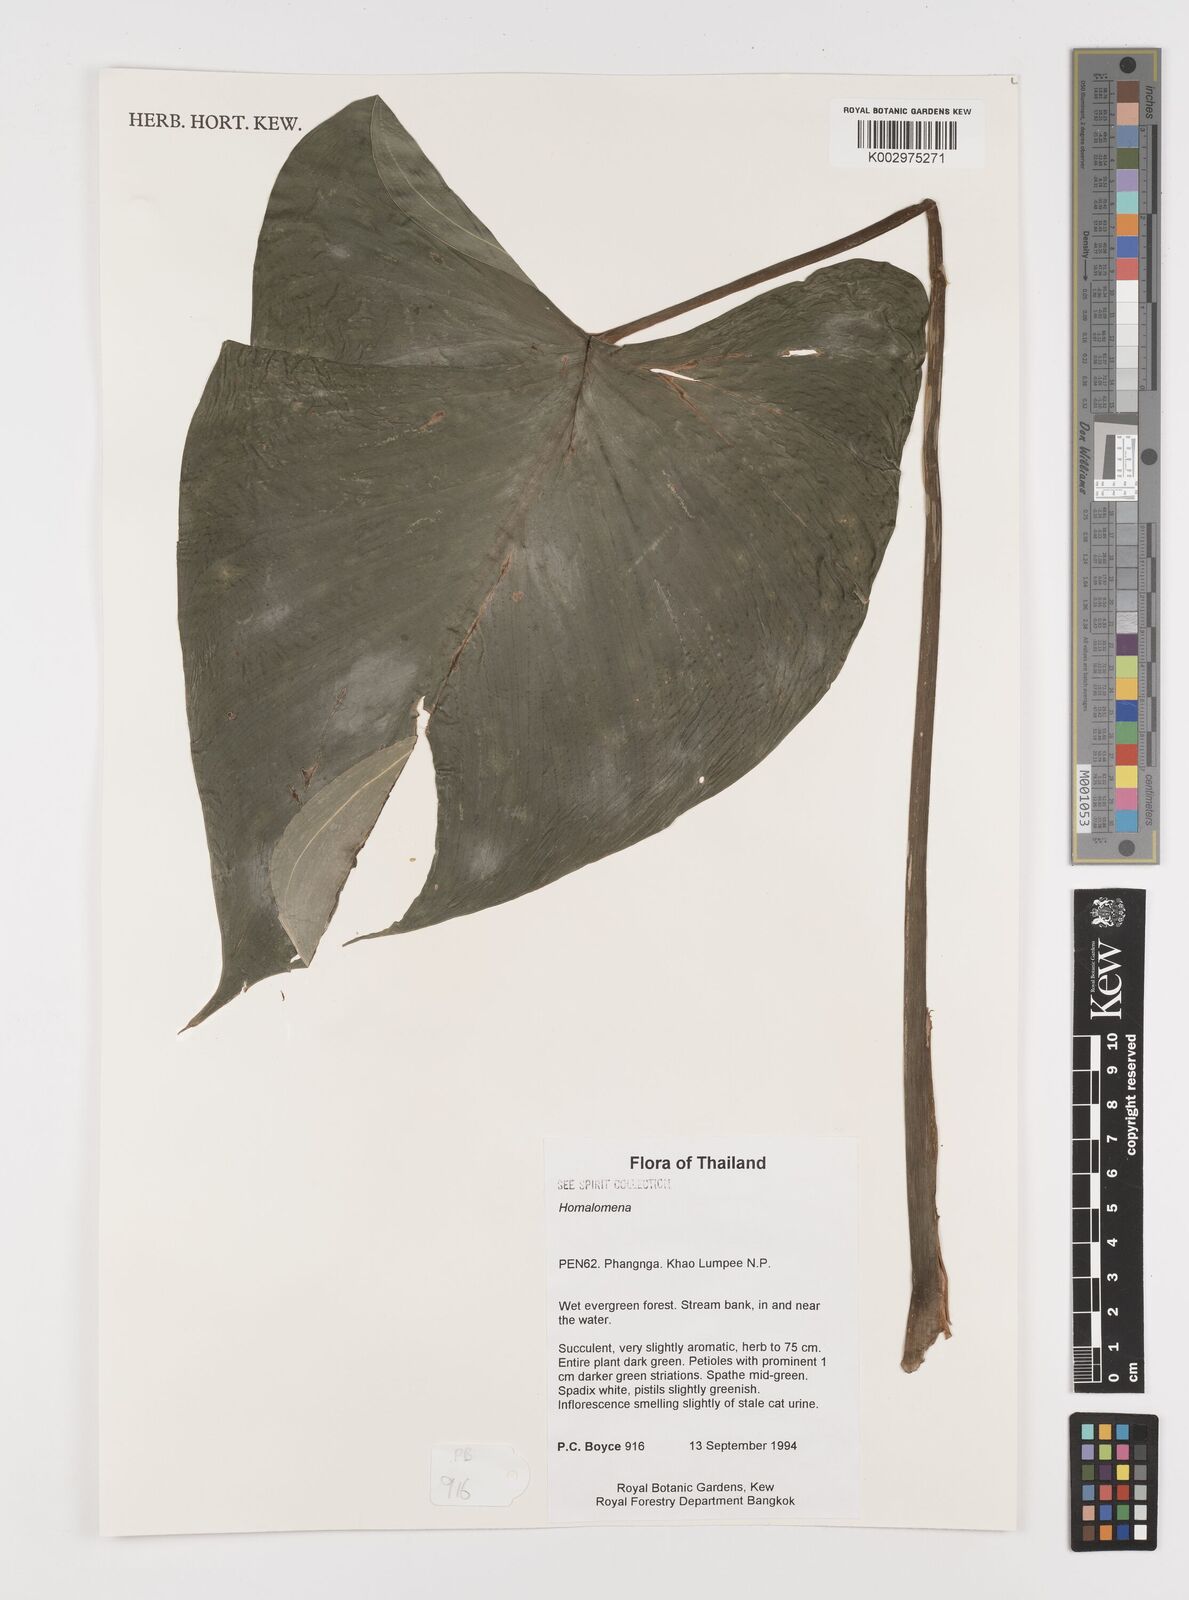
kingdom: Plantae
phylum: Tracheophyta
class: Liliopsida
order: Alismatales
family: Araceae
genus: Homalomena
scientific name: Homalomena
